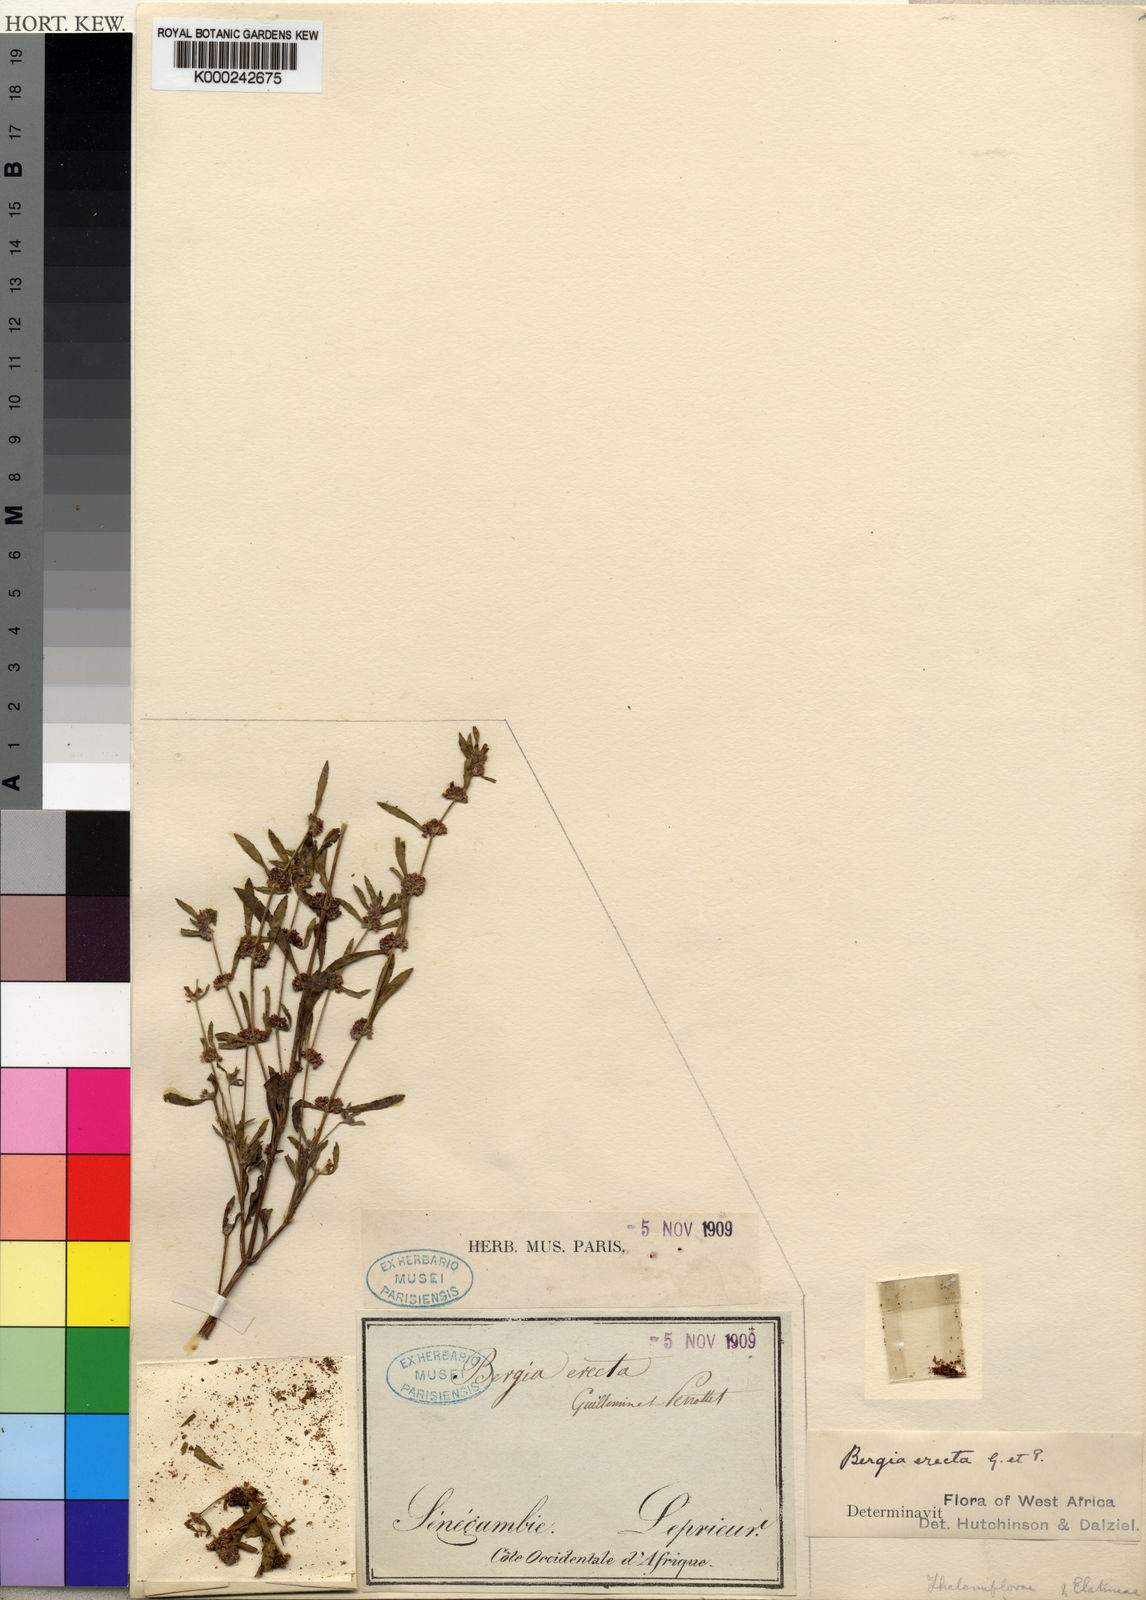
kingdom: Plantae
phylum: Tracheophyta
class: Magnoliopsida
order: Malpighiales
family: Elatinaceae
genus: Bergia
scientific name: Bergia erecta
